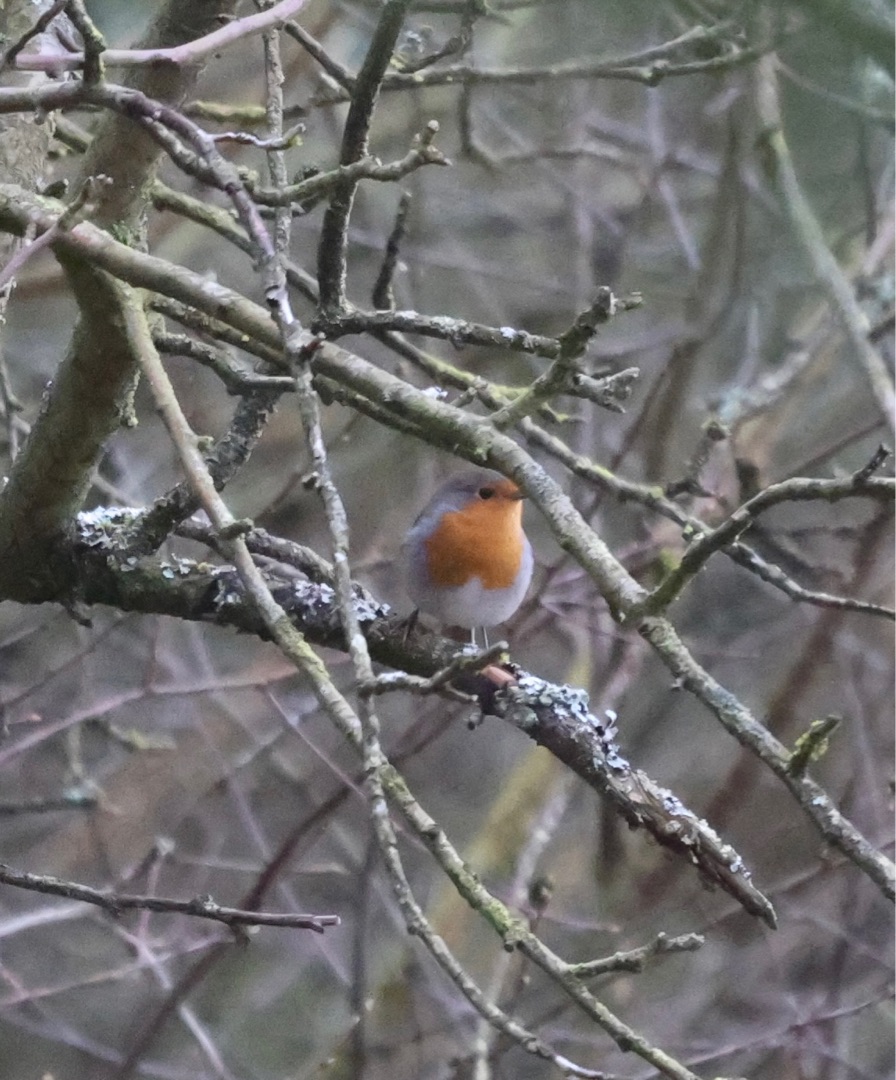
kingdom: Animalia
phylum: Chordata
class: Aves
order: Passeriformes
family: Muscicapidae
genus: Erithacus
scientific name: Erithacus rubecula
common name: Rødhals/rødkælk
